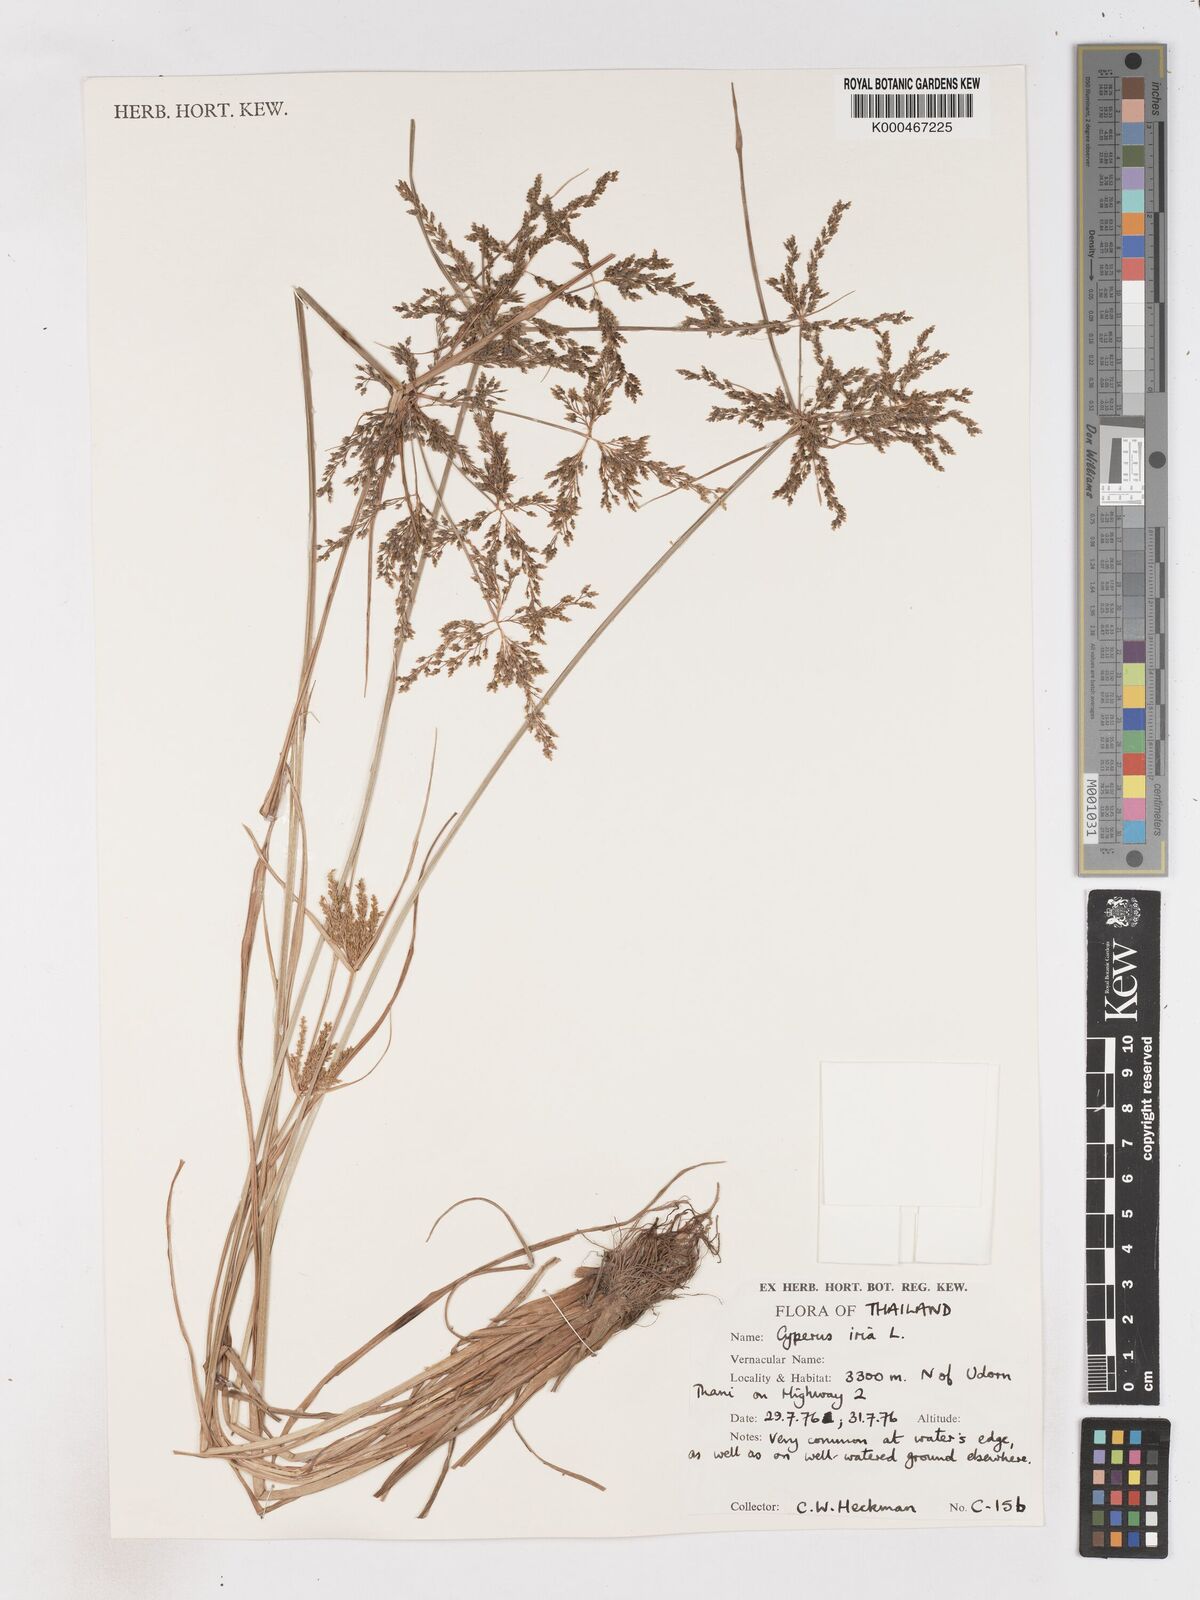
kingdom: Plantae
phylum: Tracheophyta
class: Liliopsida
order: Poales
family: Cyperaceae
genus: Cyperus
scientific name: Cyperus iria
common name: Ricefield flatsedge
